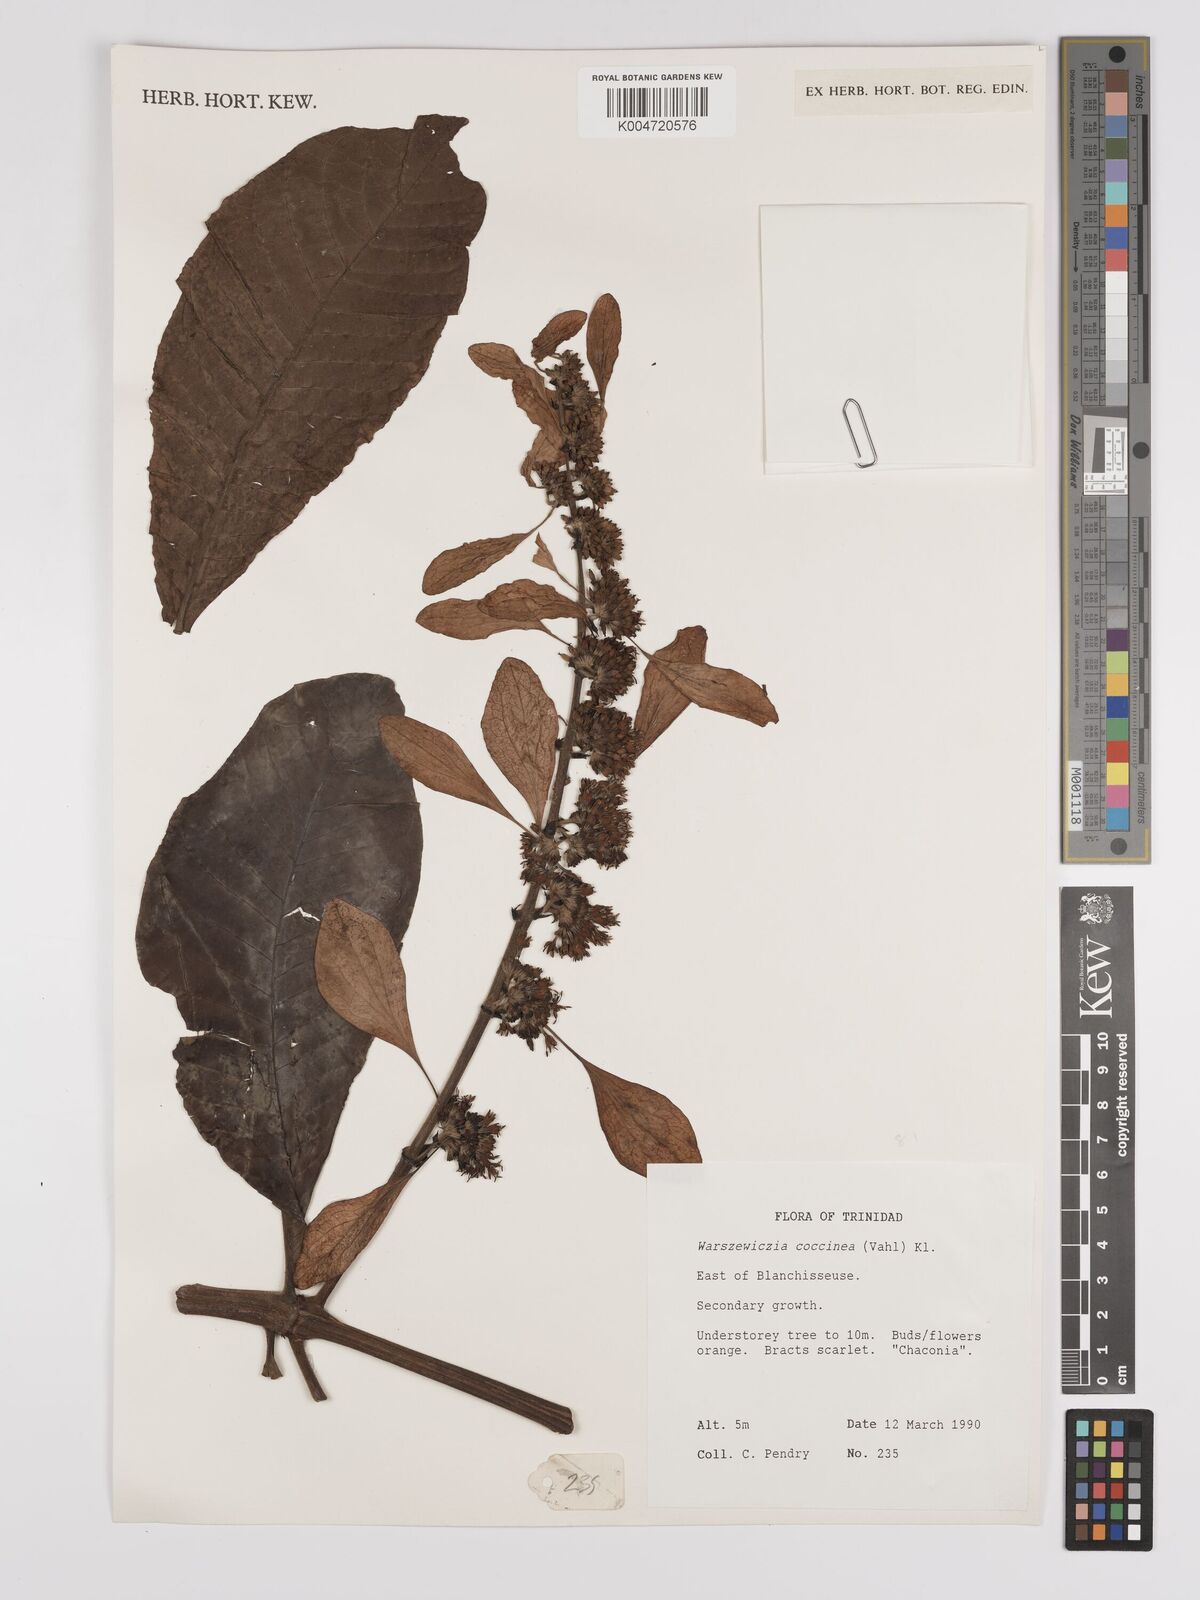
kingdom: Plantae
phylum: Tracheophyta
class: Magnoliopsida
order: Gentianales
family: Rubiaceae
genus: Warszewiczia
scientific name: Warszewiczia coccinea
